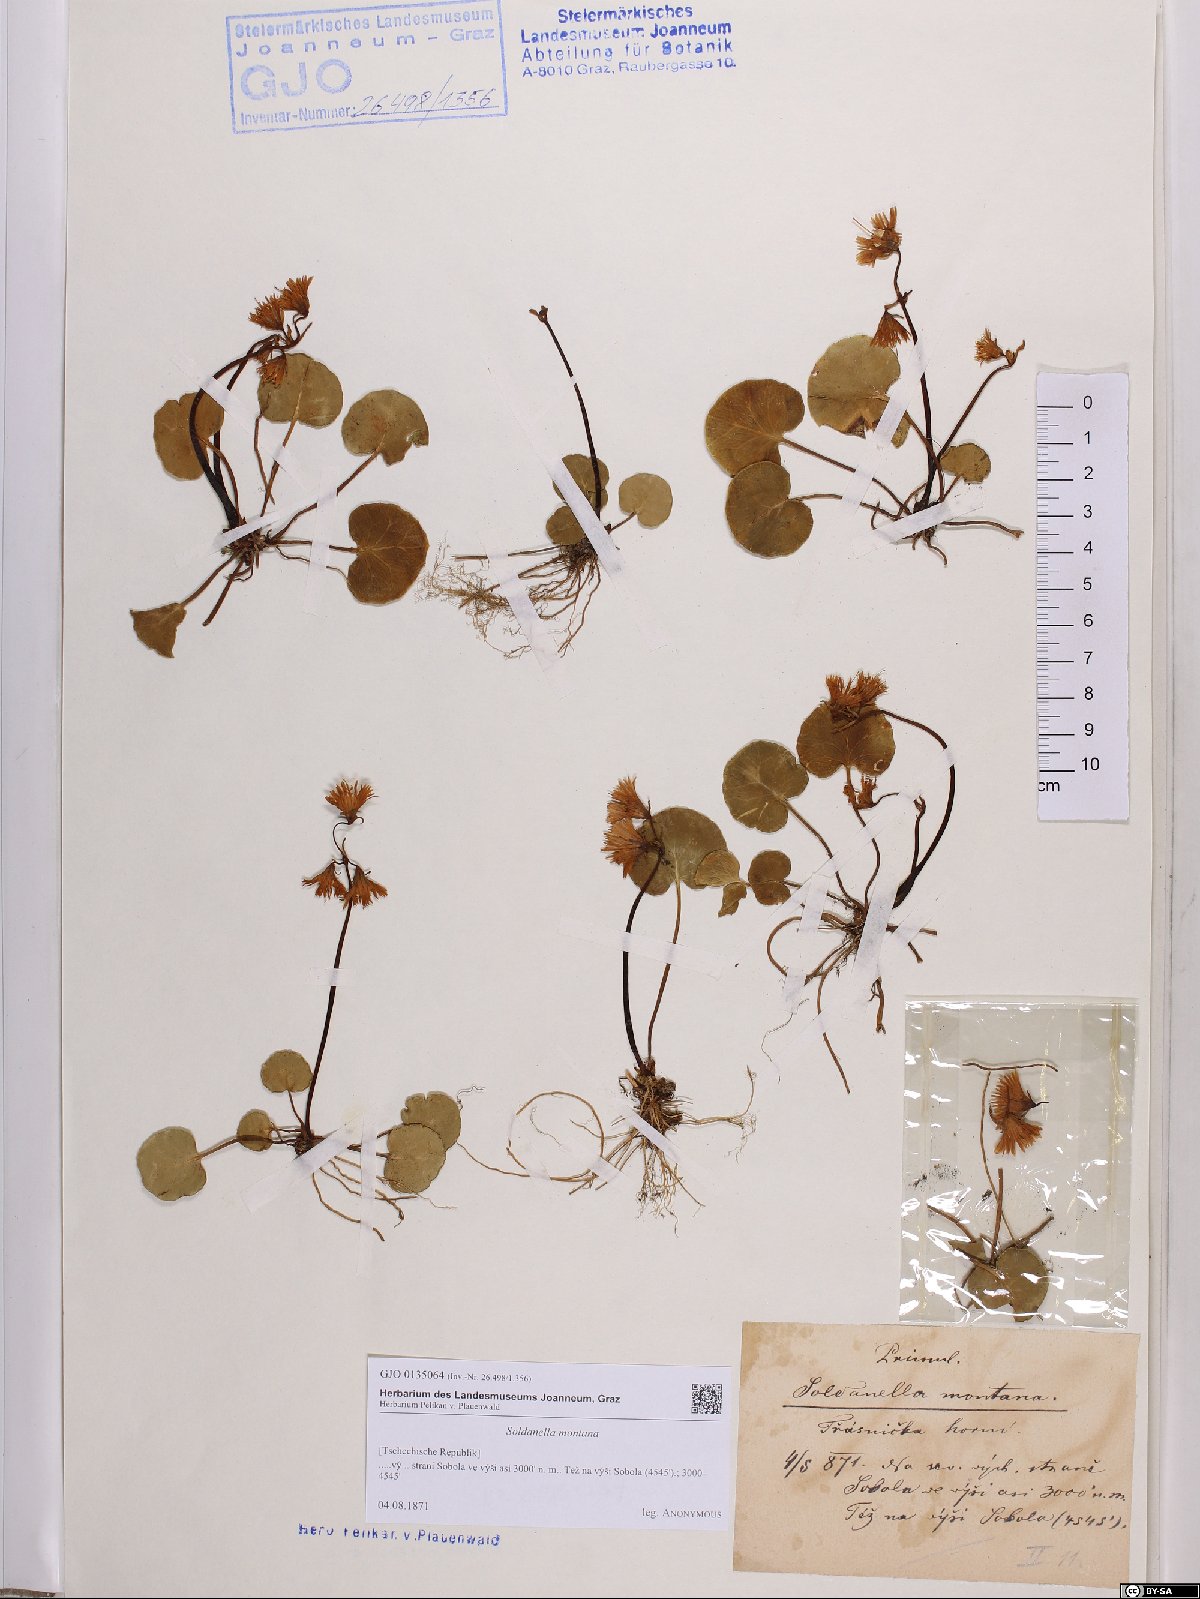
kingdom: Plantae
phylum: Tracheophyta
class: Magnoliopsida
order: Ericales
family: Primulaceae
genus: Soldanella
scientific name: Soldanella montana
